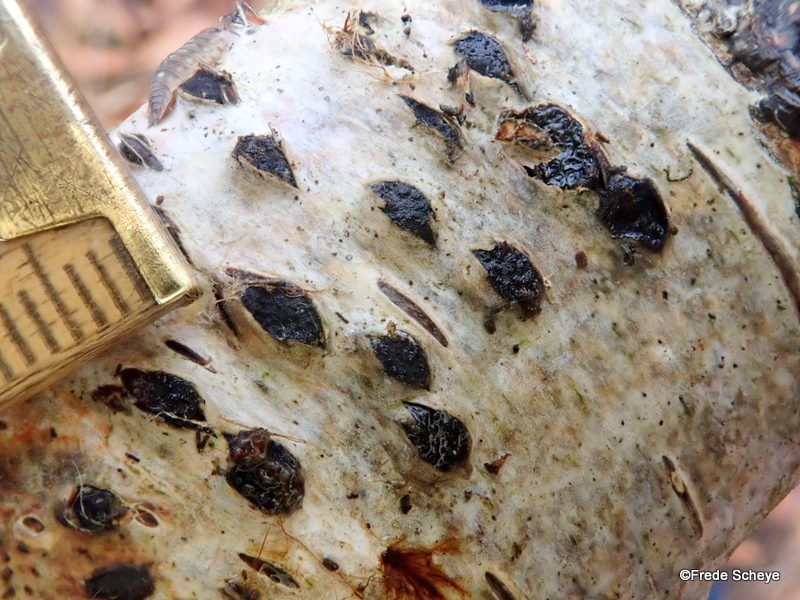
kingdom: Fungi
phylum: Ascomycota
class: Sordariomycetes
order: Xylariales
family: Diatrypaceae
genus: Diatrypella
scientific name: Diatrypella favacea
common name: klemt kulskorpe
